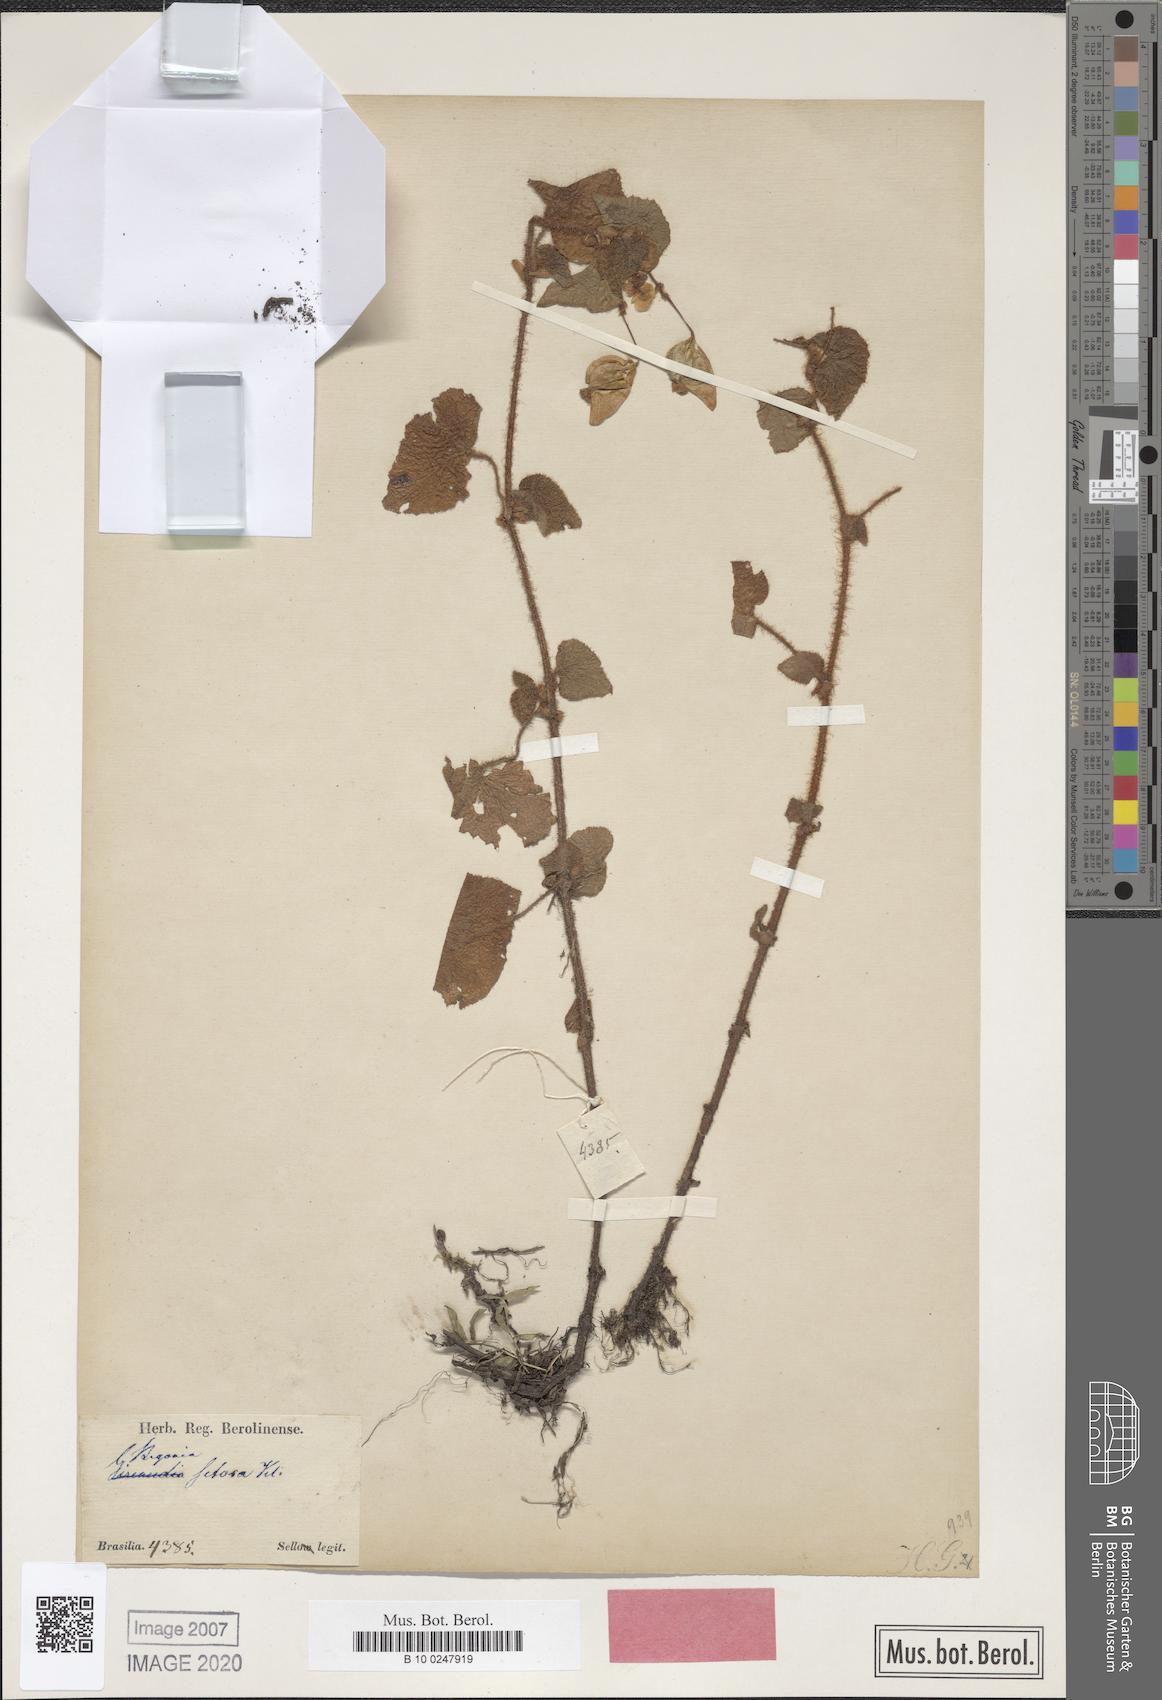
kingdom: Plantae
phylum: Tracheophyta
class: Magnoliopsida
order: Cucurbitales
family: Begoniaceae
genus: Begonia
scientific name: Begonia fischeri
